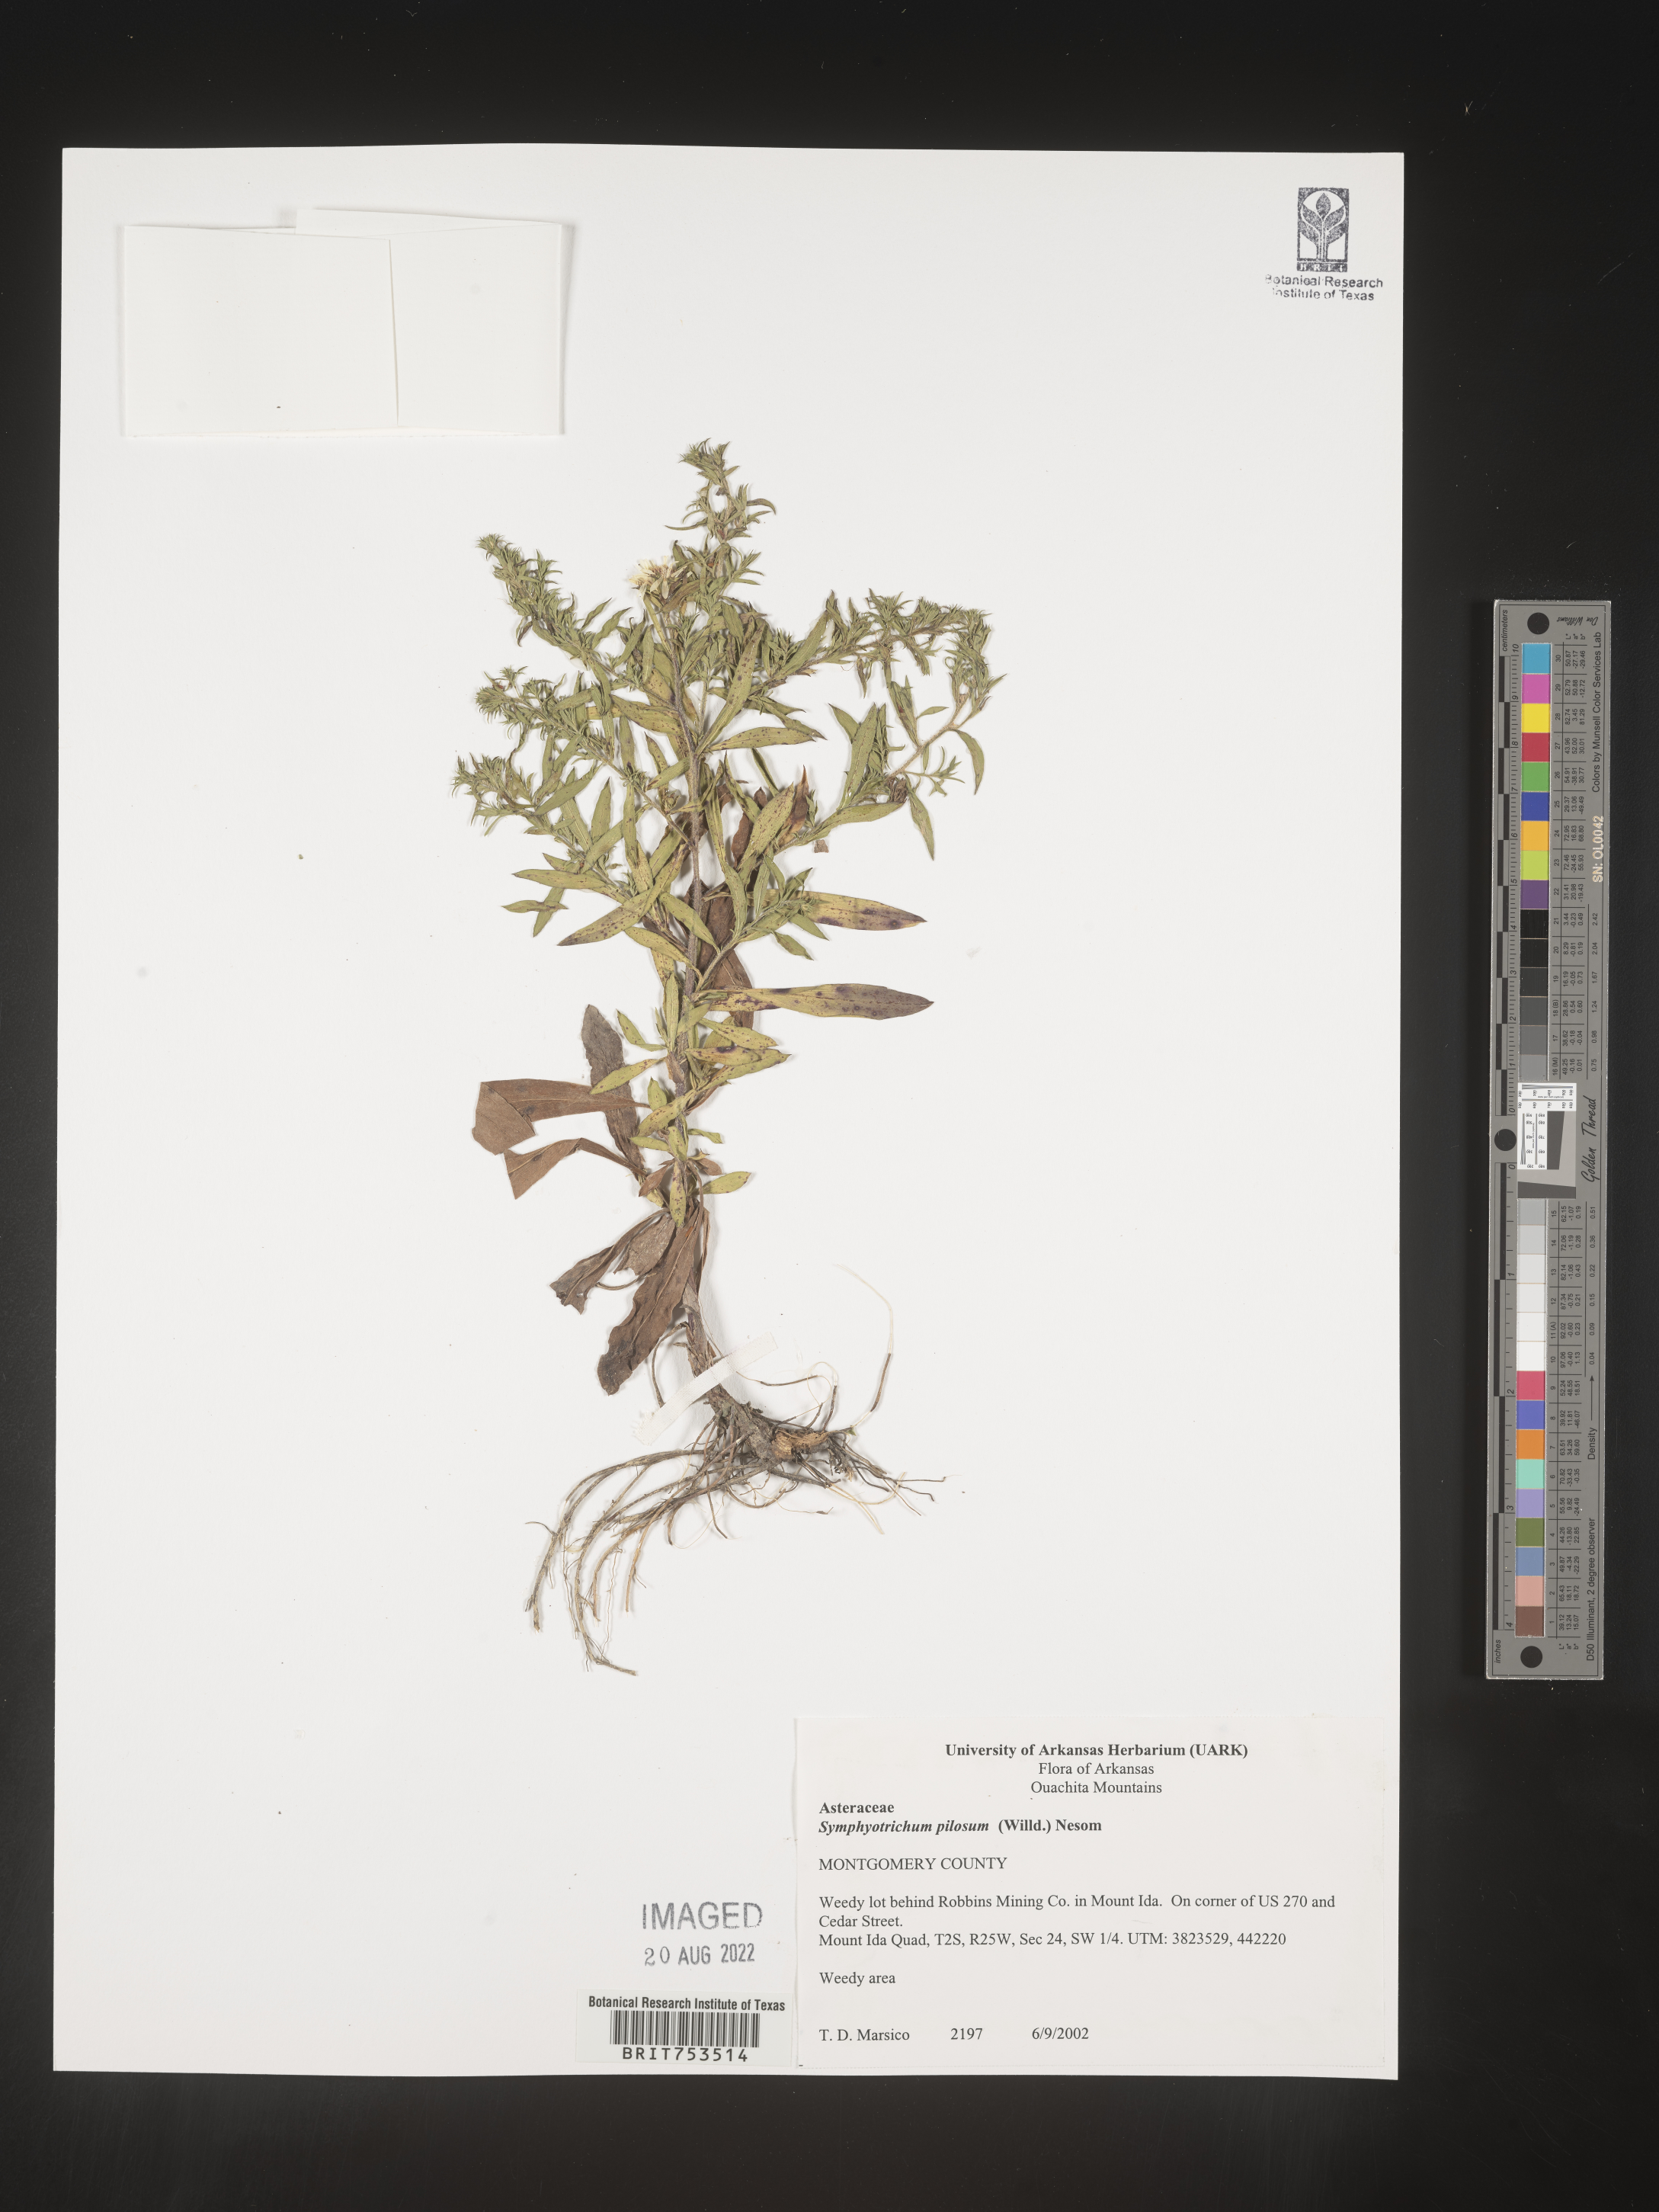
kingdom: Plantae
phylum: Tracheophyta
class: Magnoliopsida
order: Asterales
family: Asteraceae
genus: Symphyotrichum
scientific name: Symphyotrichum pilosum
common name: Awl aster
